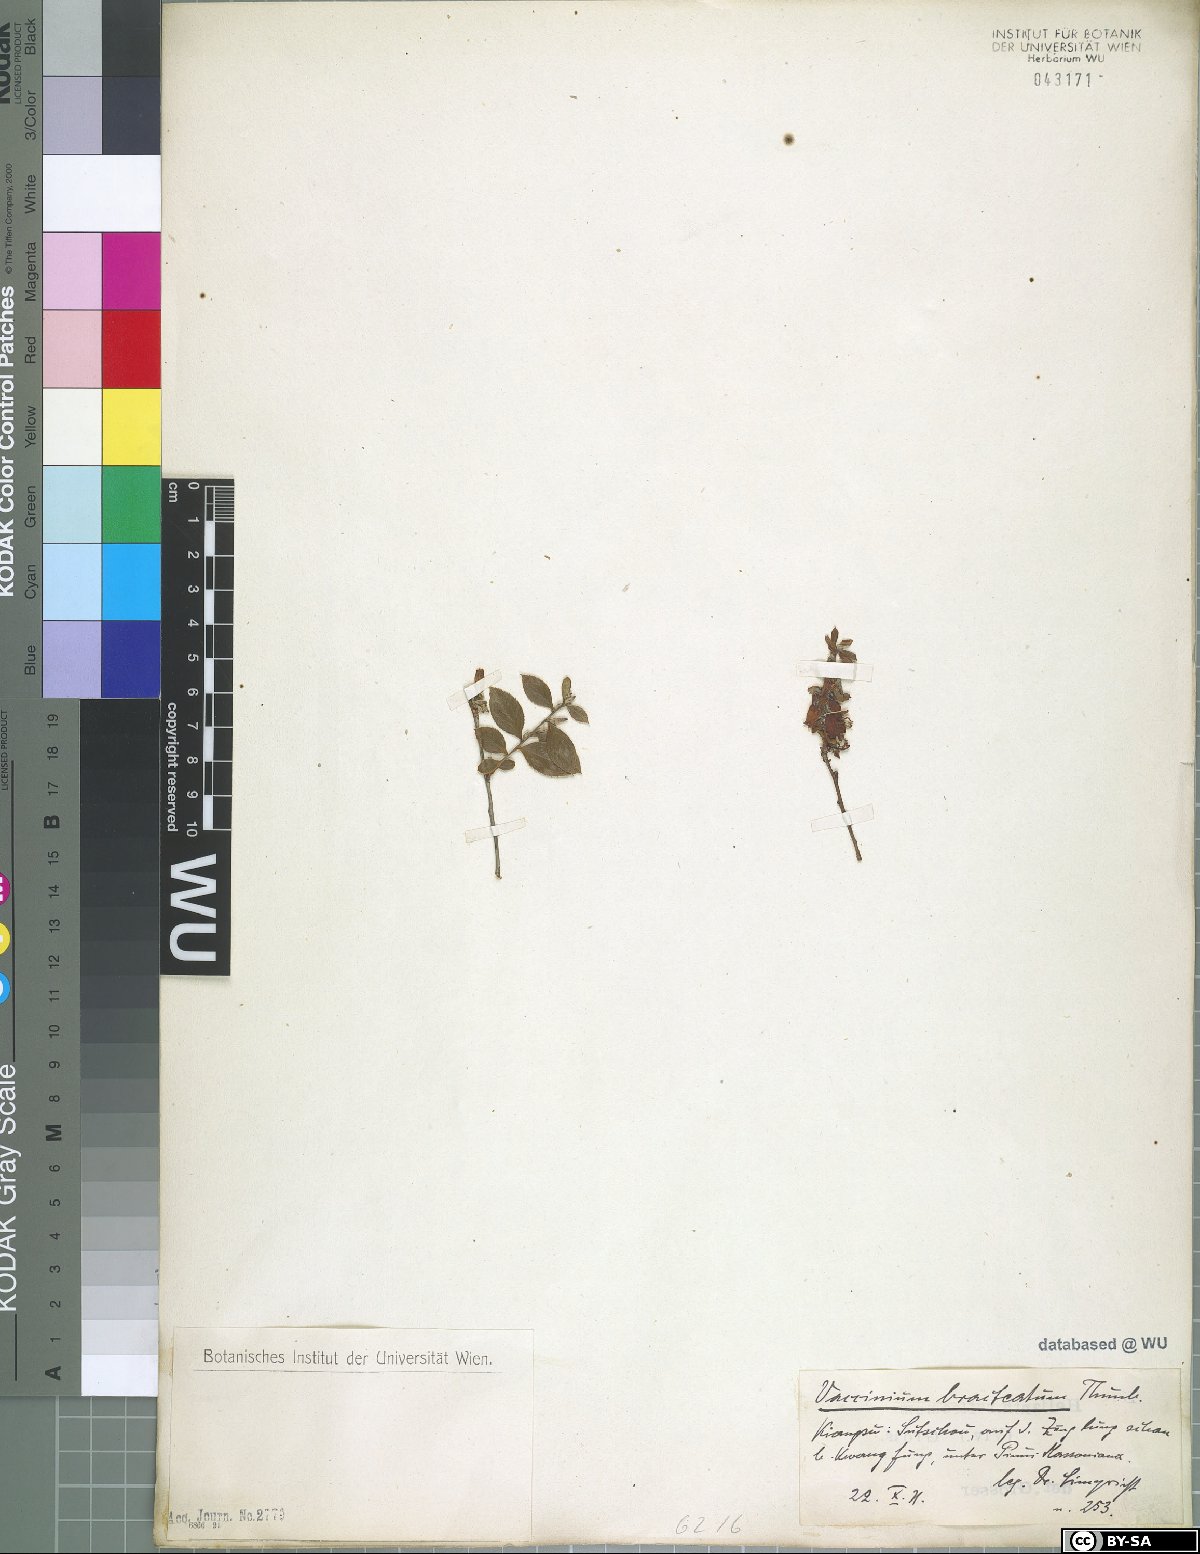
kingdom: Plantae
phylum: Tracheophyta
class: Magnoliopsida
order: Ericales
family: Ericaceae
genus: Vaccinium
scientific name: Vaccinium bracteatum
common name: Sea bilberry
